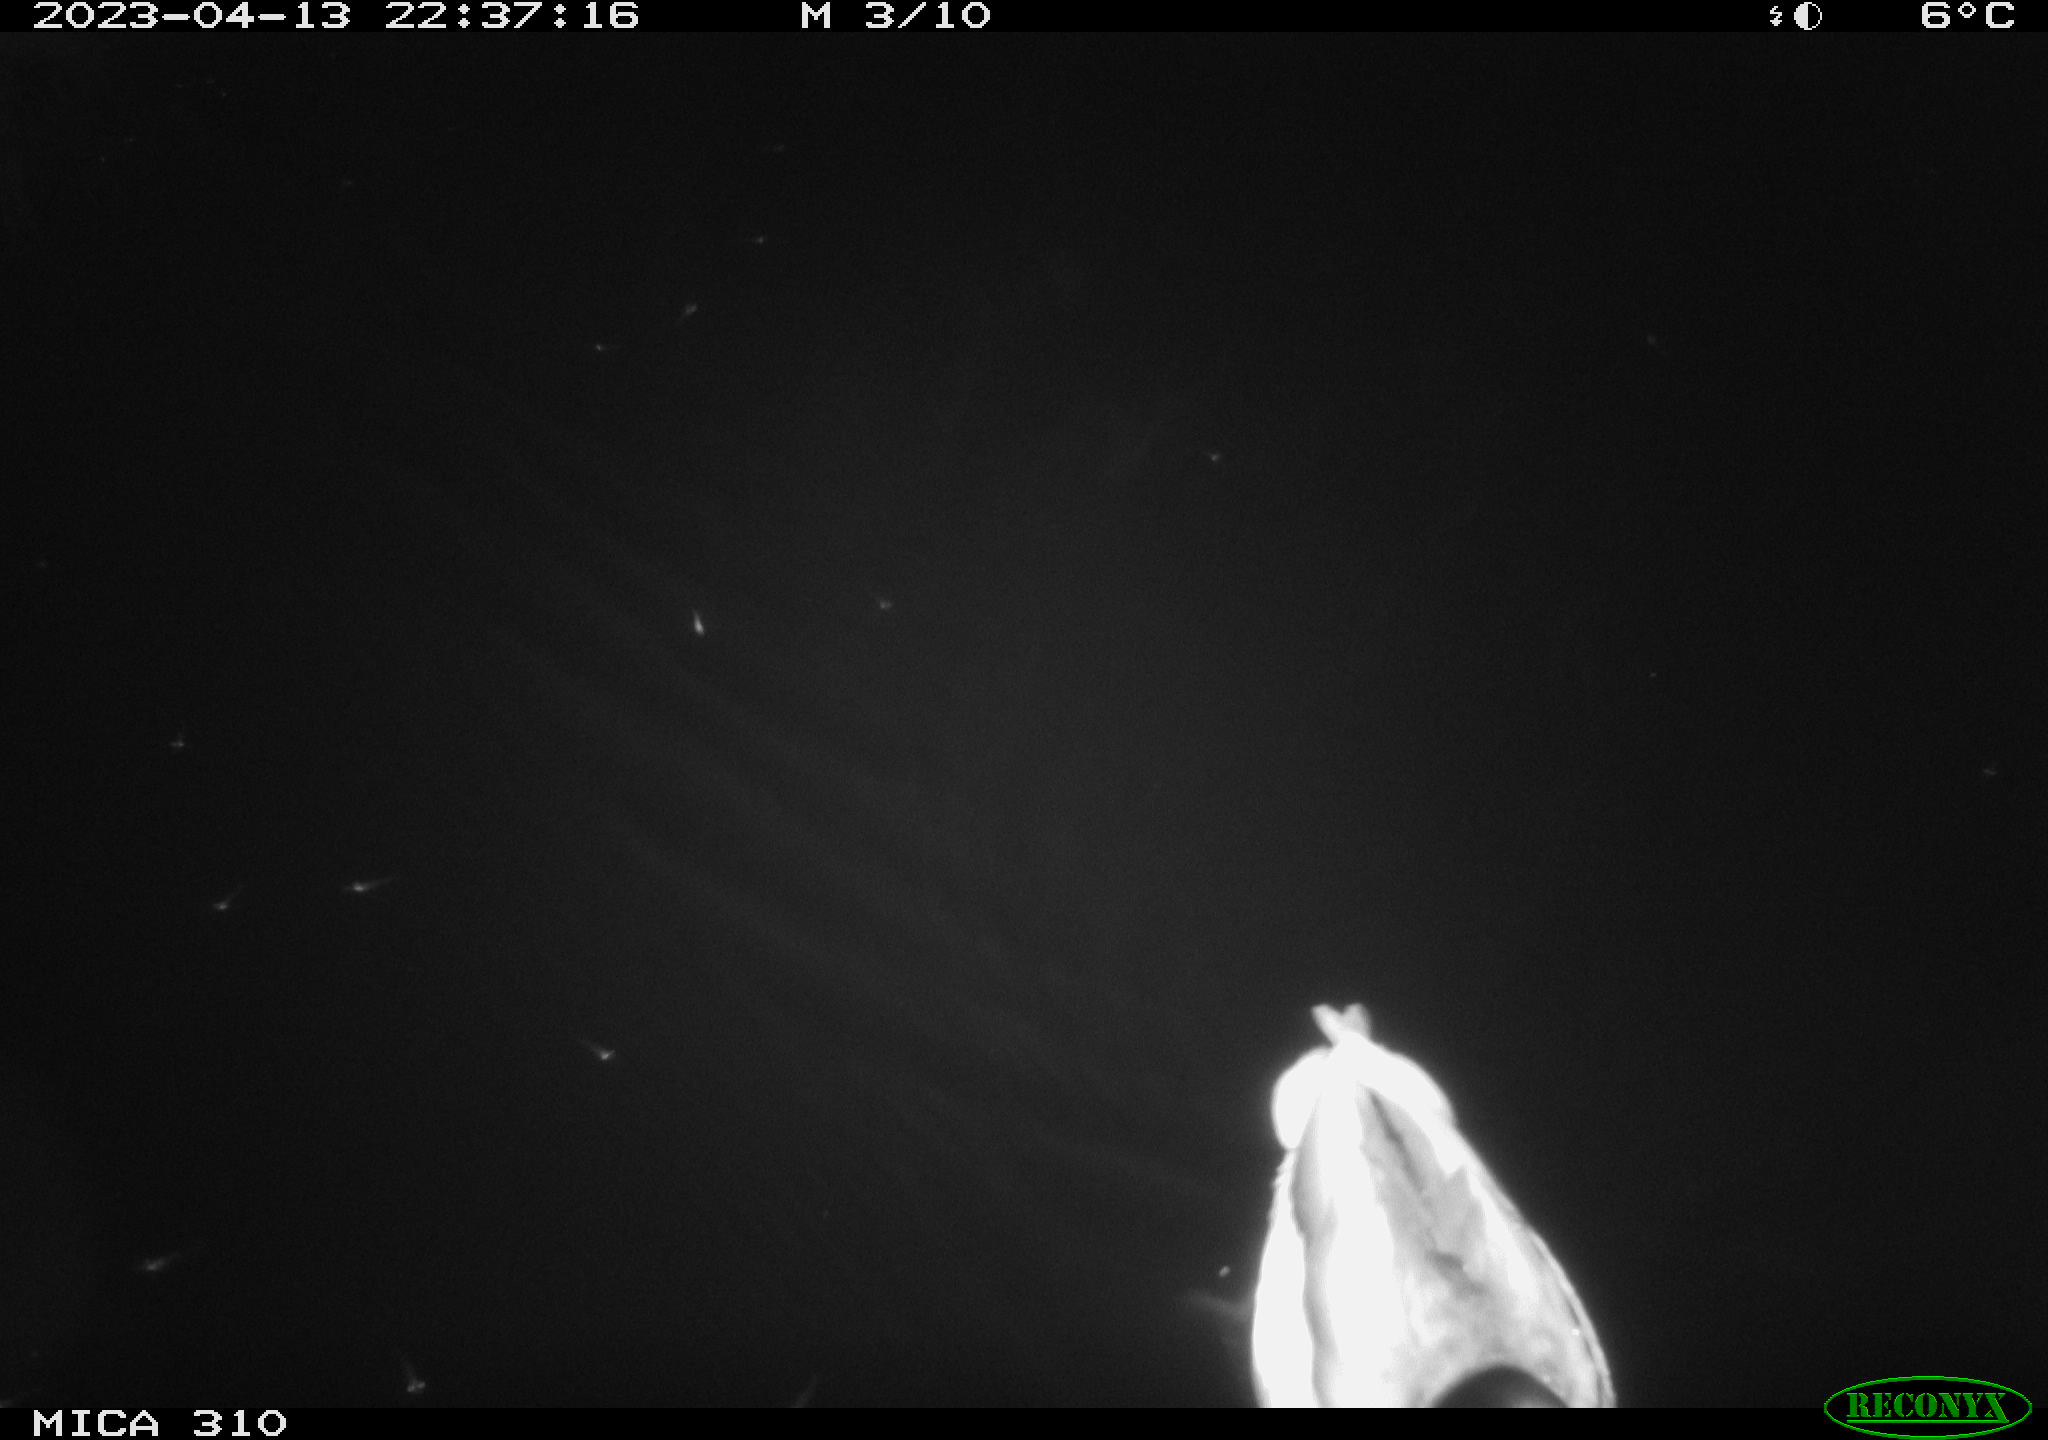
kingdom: Animalia
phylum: Chordata
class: Aves
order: Anseriformes
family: Anatidae
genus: Anas
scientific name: Anas
